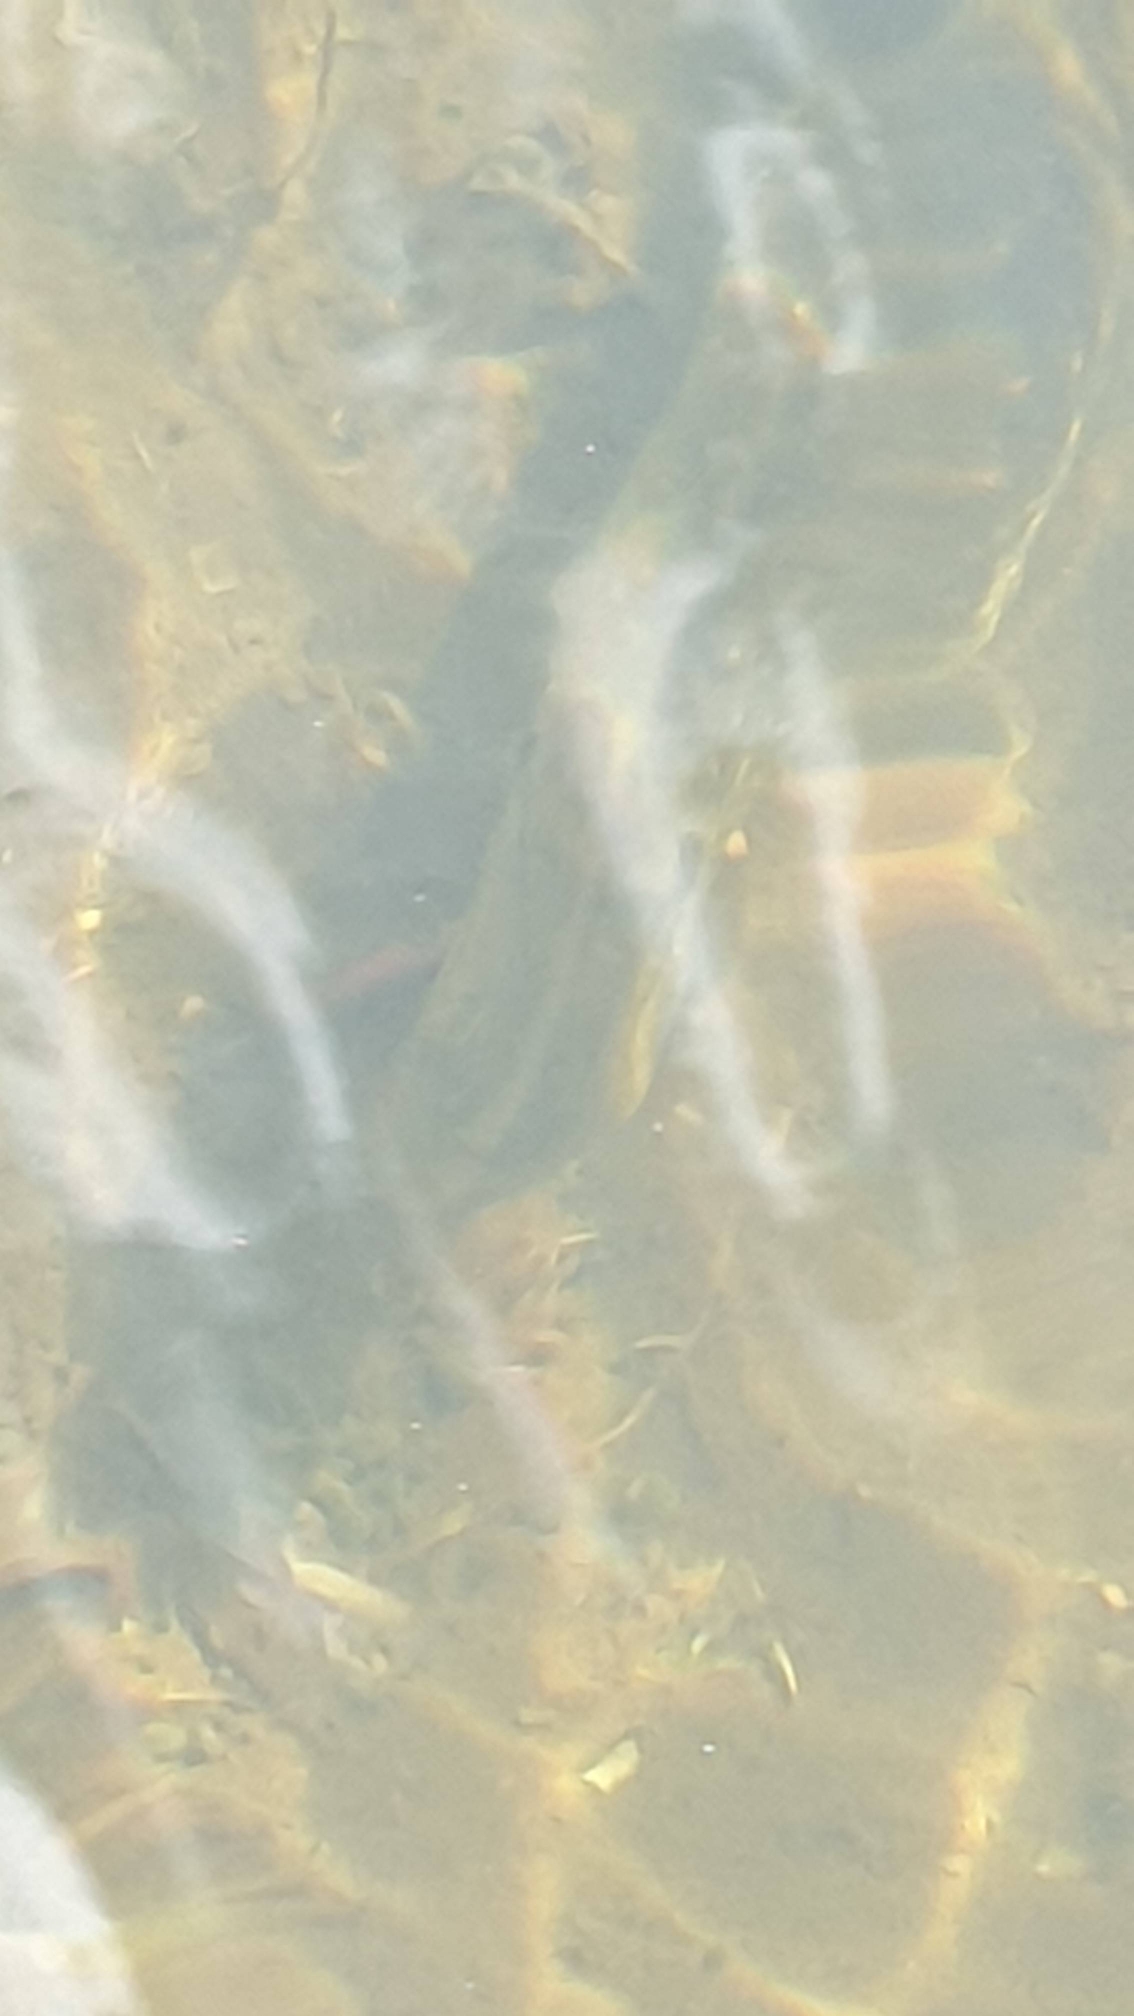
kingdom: Animalia
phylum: Chordata
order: Esociformes
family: Esocidae
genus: Esox
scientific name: Esox lucius
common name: Gedde
